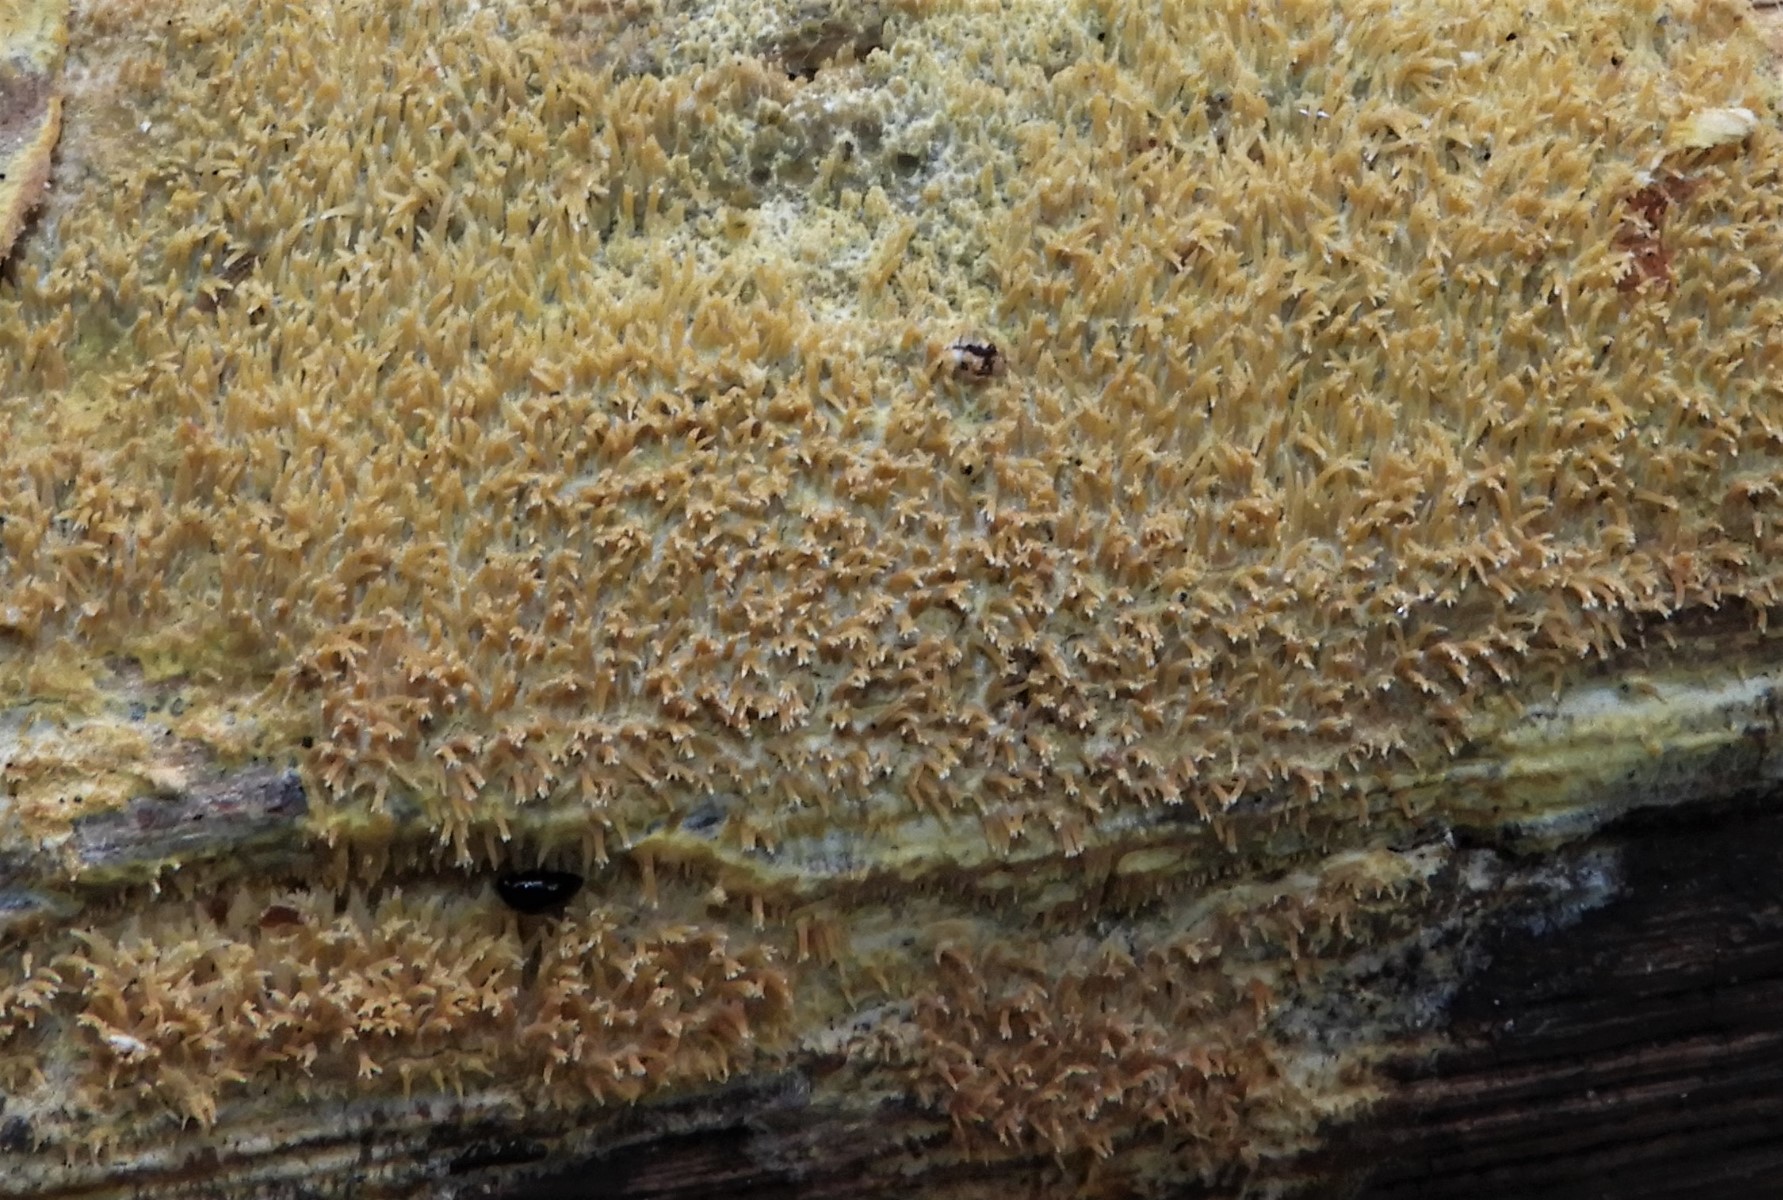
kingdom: Fungi
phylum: Basidiomycota
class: Agaricomycetes
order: Corticiales
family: Corticiaceae
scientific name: Corticiaceae
